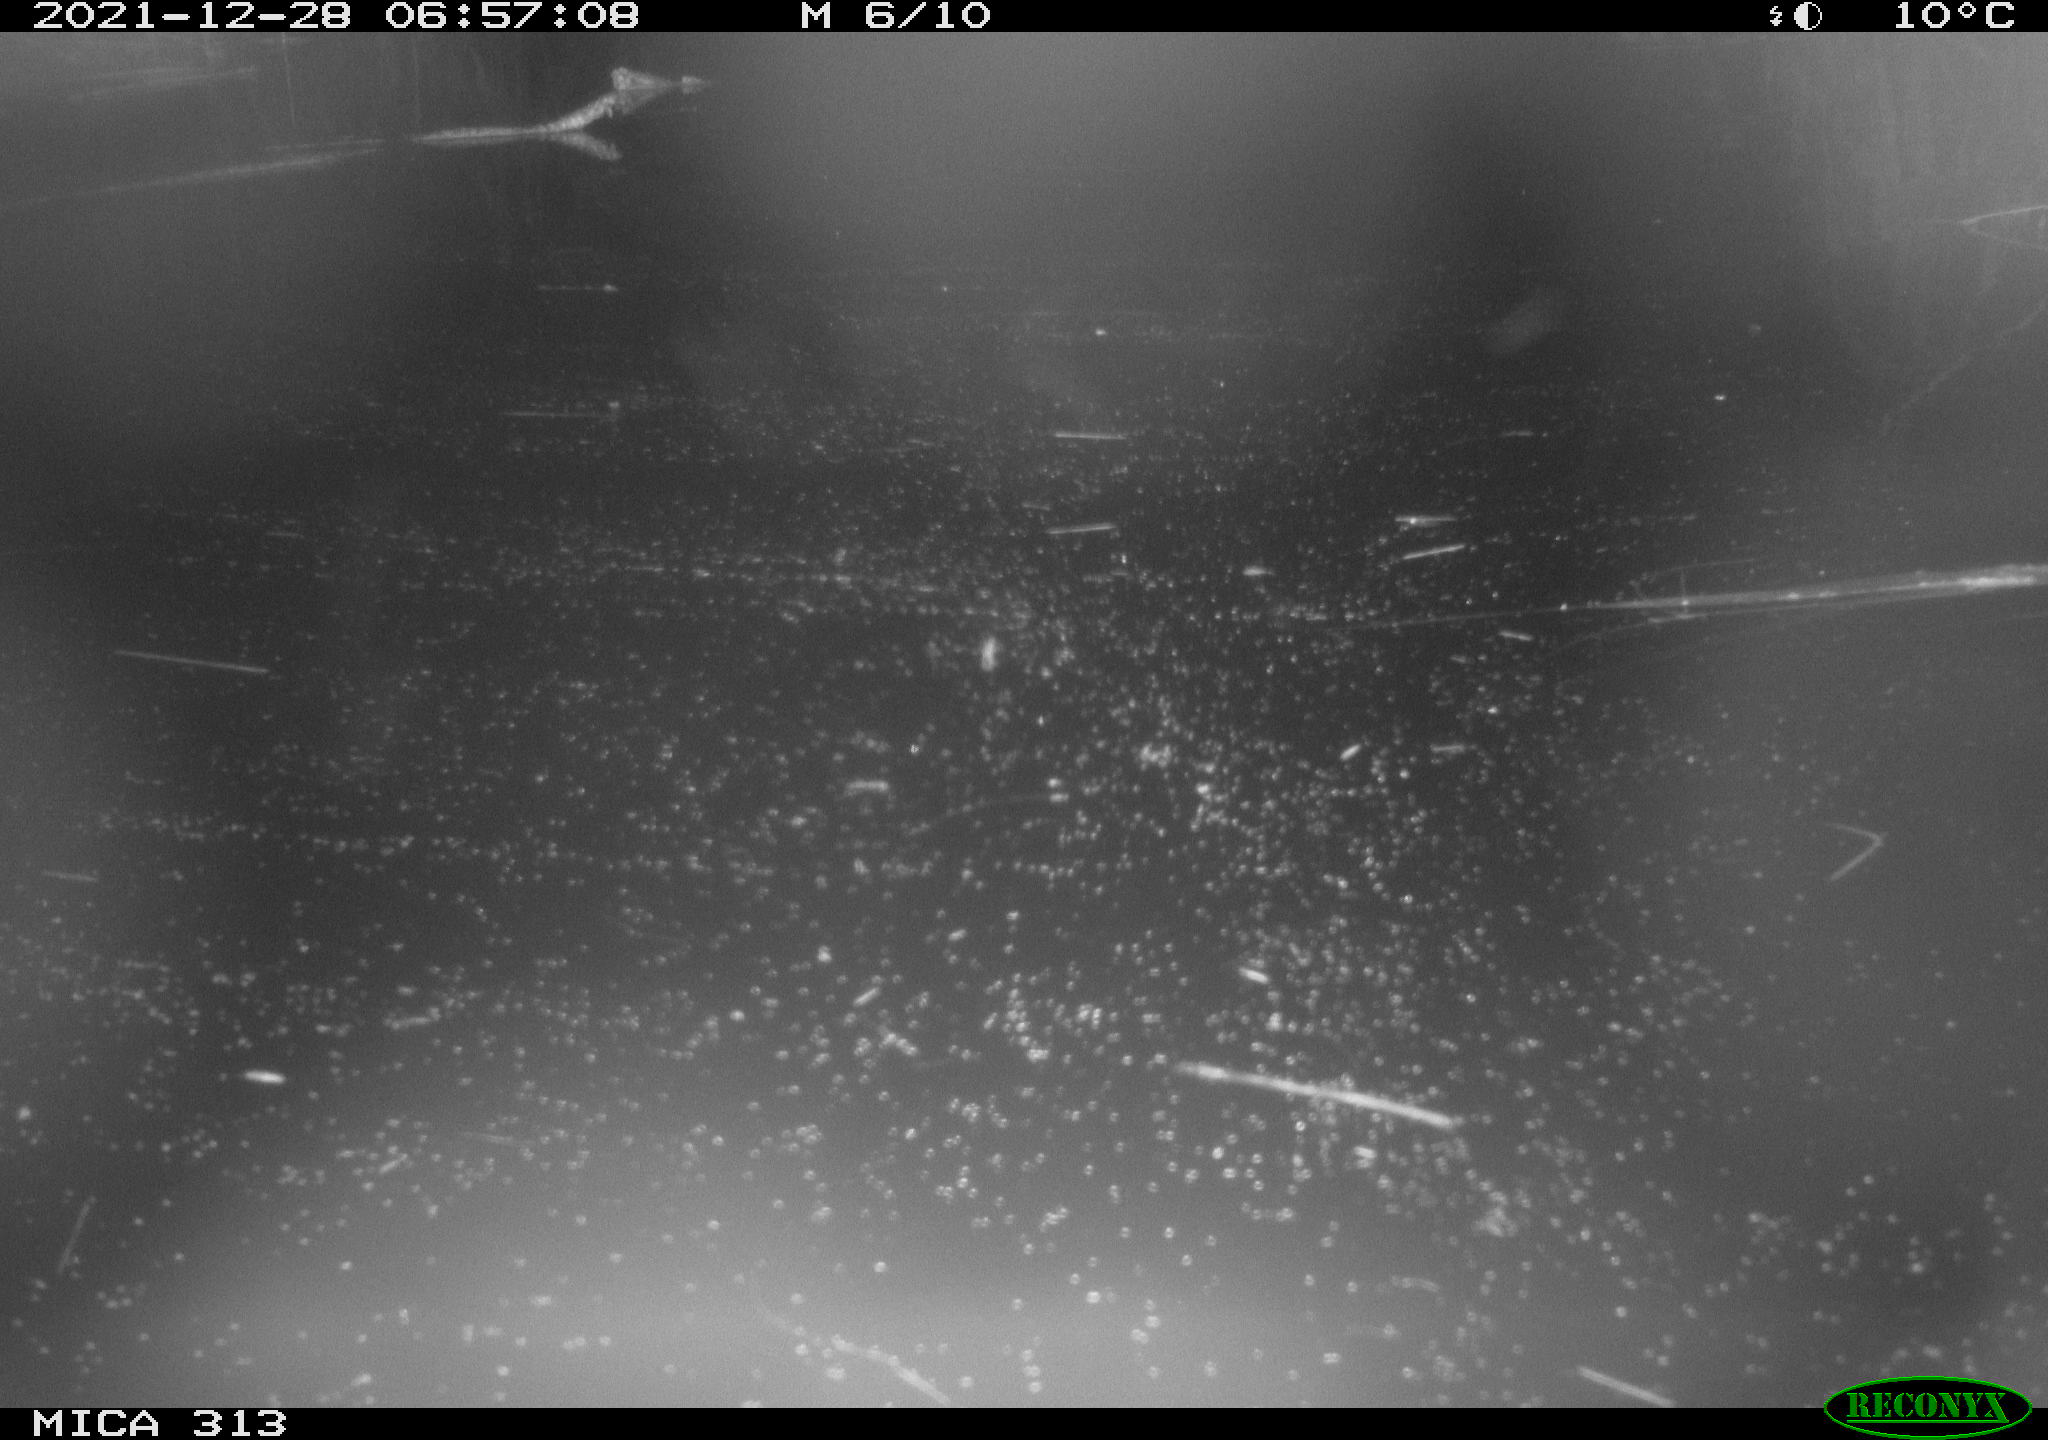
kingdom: Animalia
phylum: Chordata
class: Aves
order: Gruiformes
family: Rallidae
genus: Gallinula
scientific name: Gallinula chloropus
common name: Common moorhen
